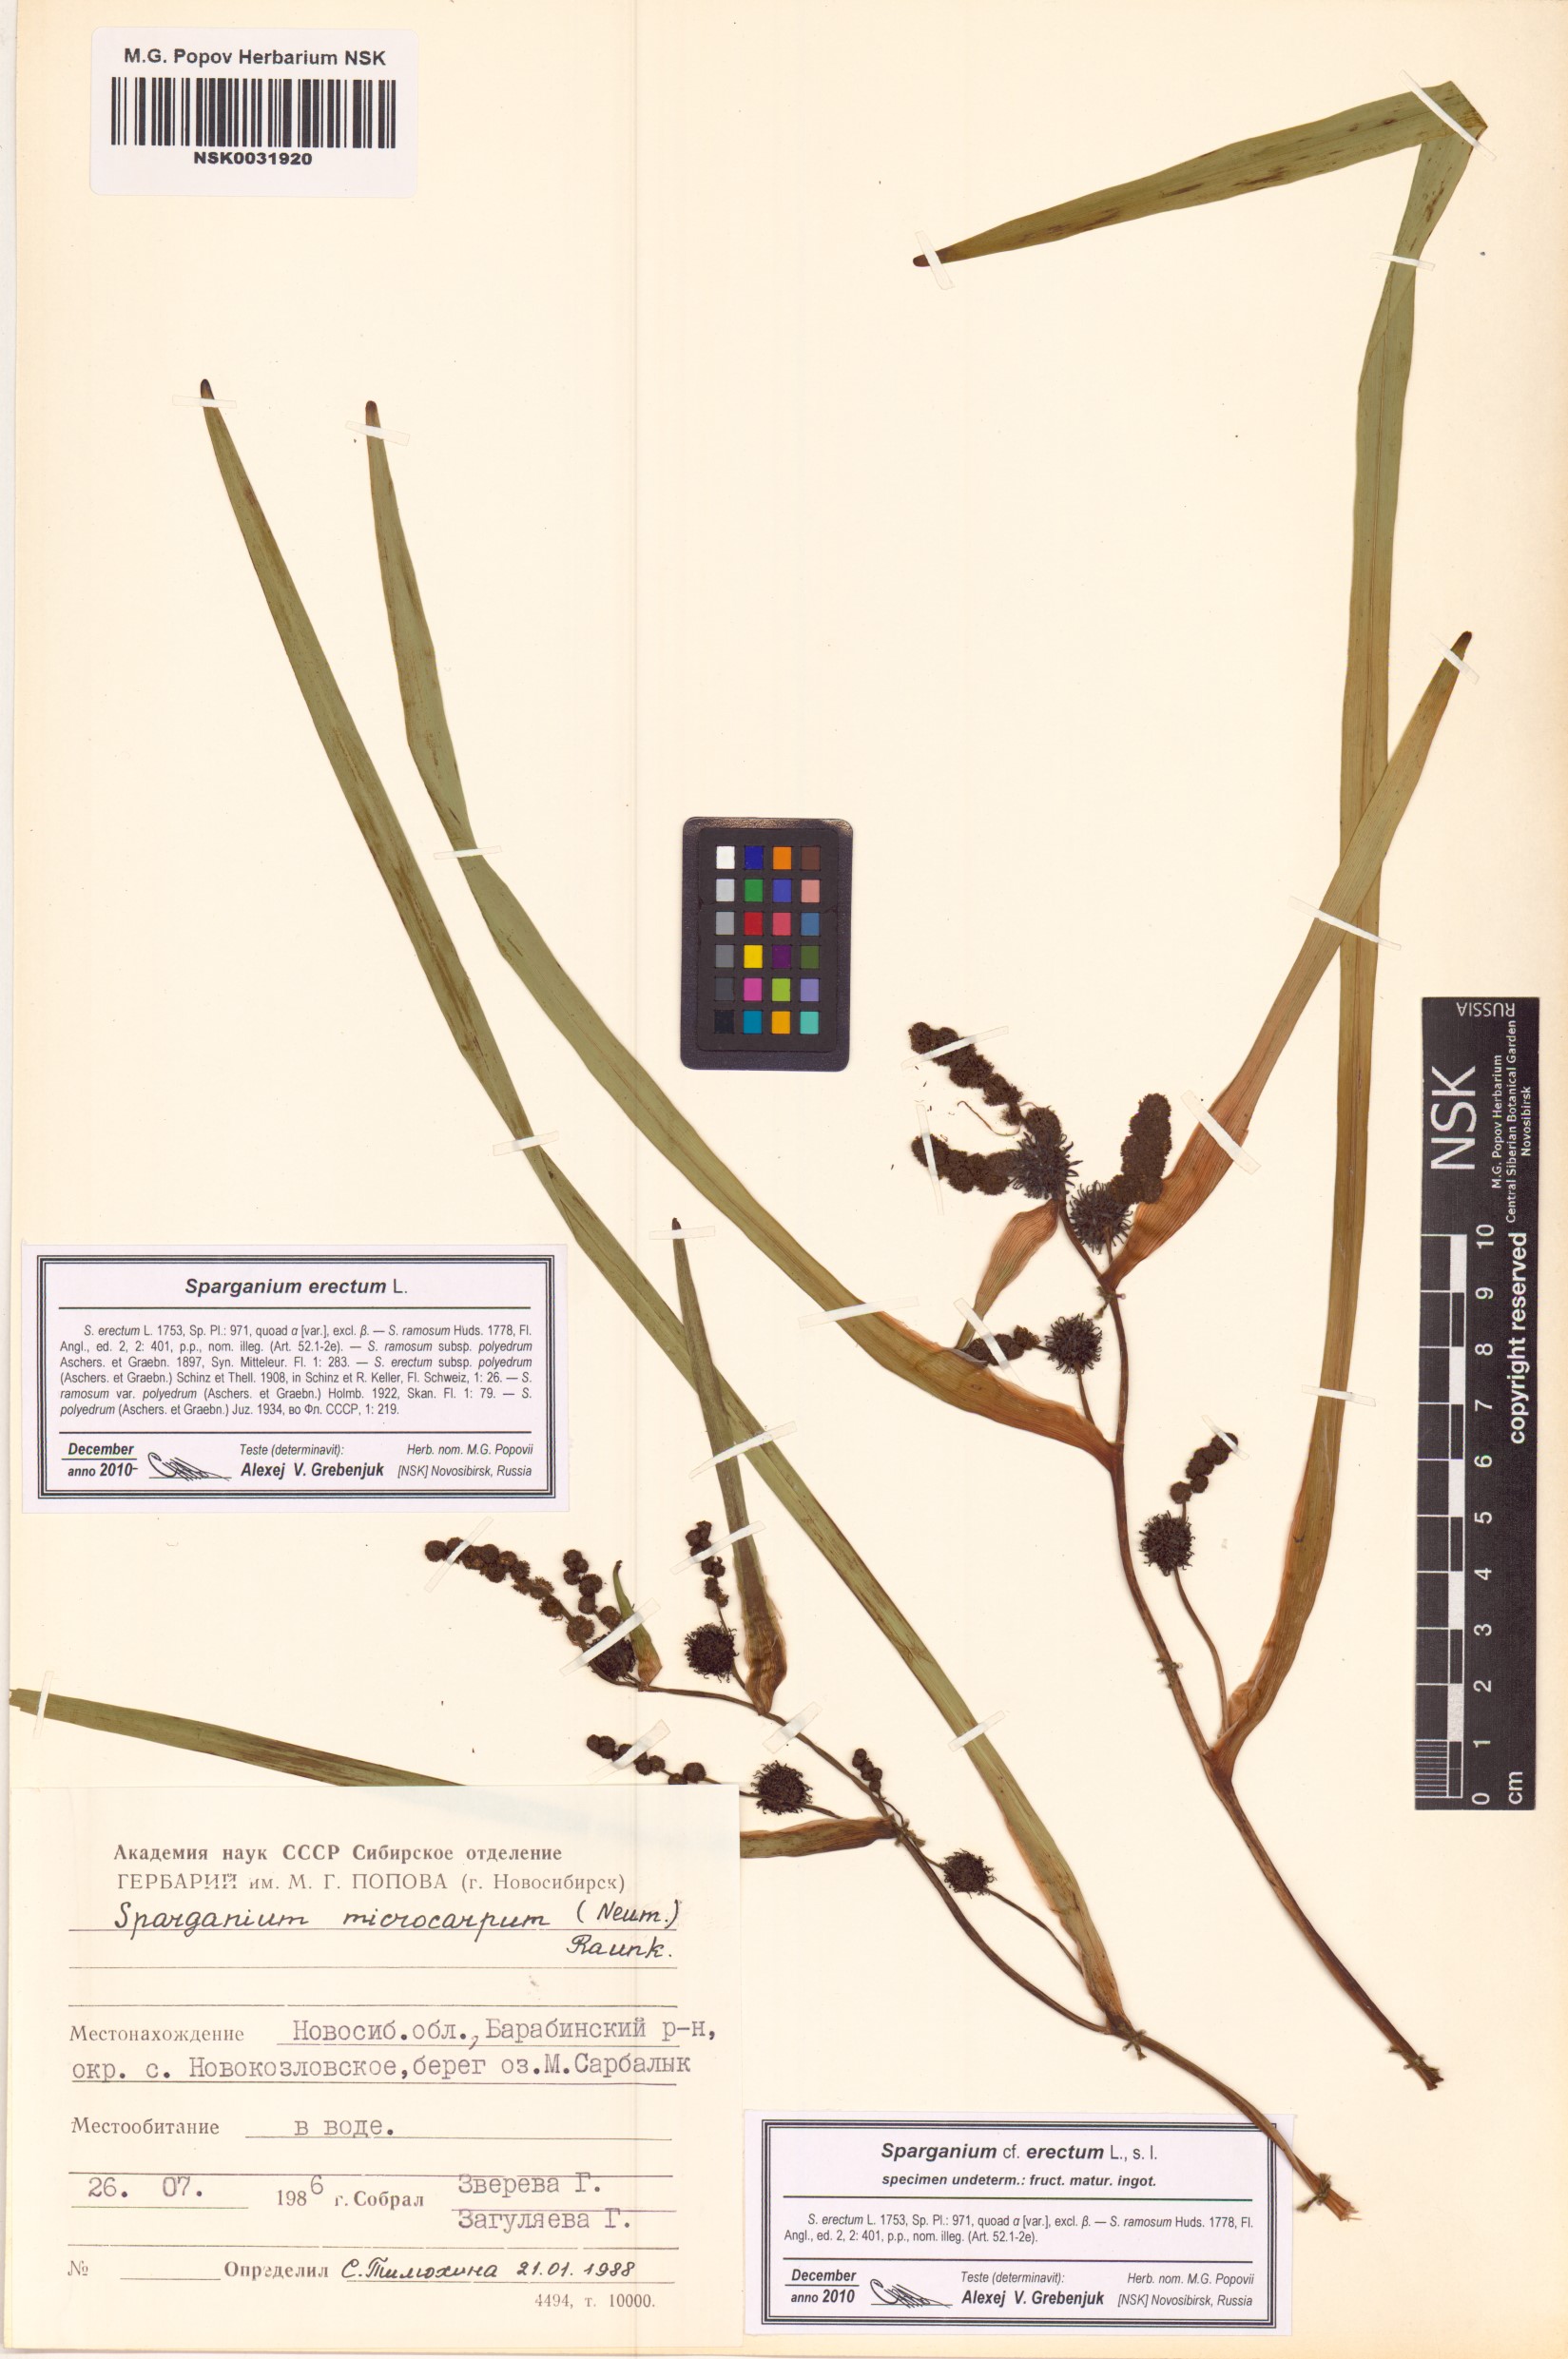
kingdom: Plantae
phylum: Tracheophyta
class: Liliopsida
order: Poales
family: Typhaceae
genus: Sparganium
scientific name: Sparganium erectum
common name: Branched bur-reed
